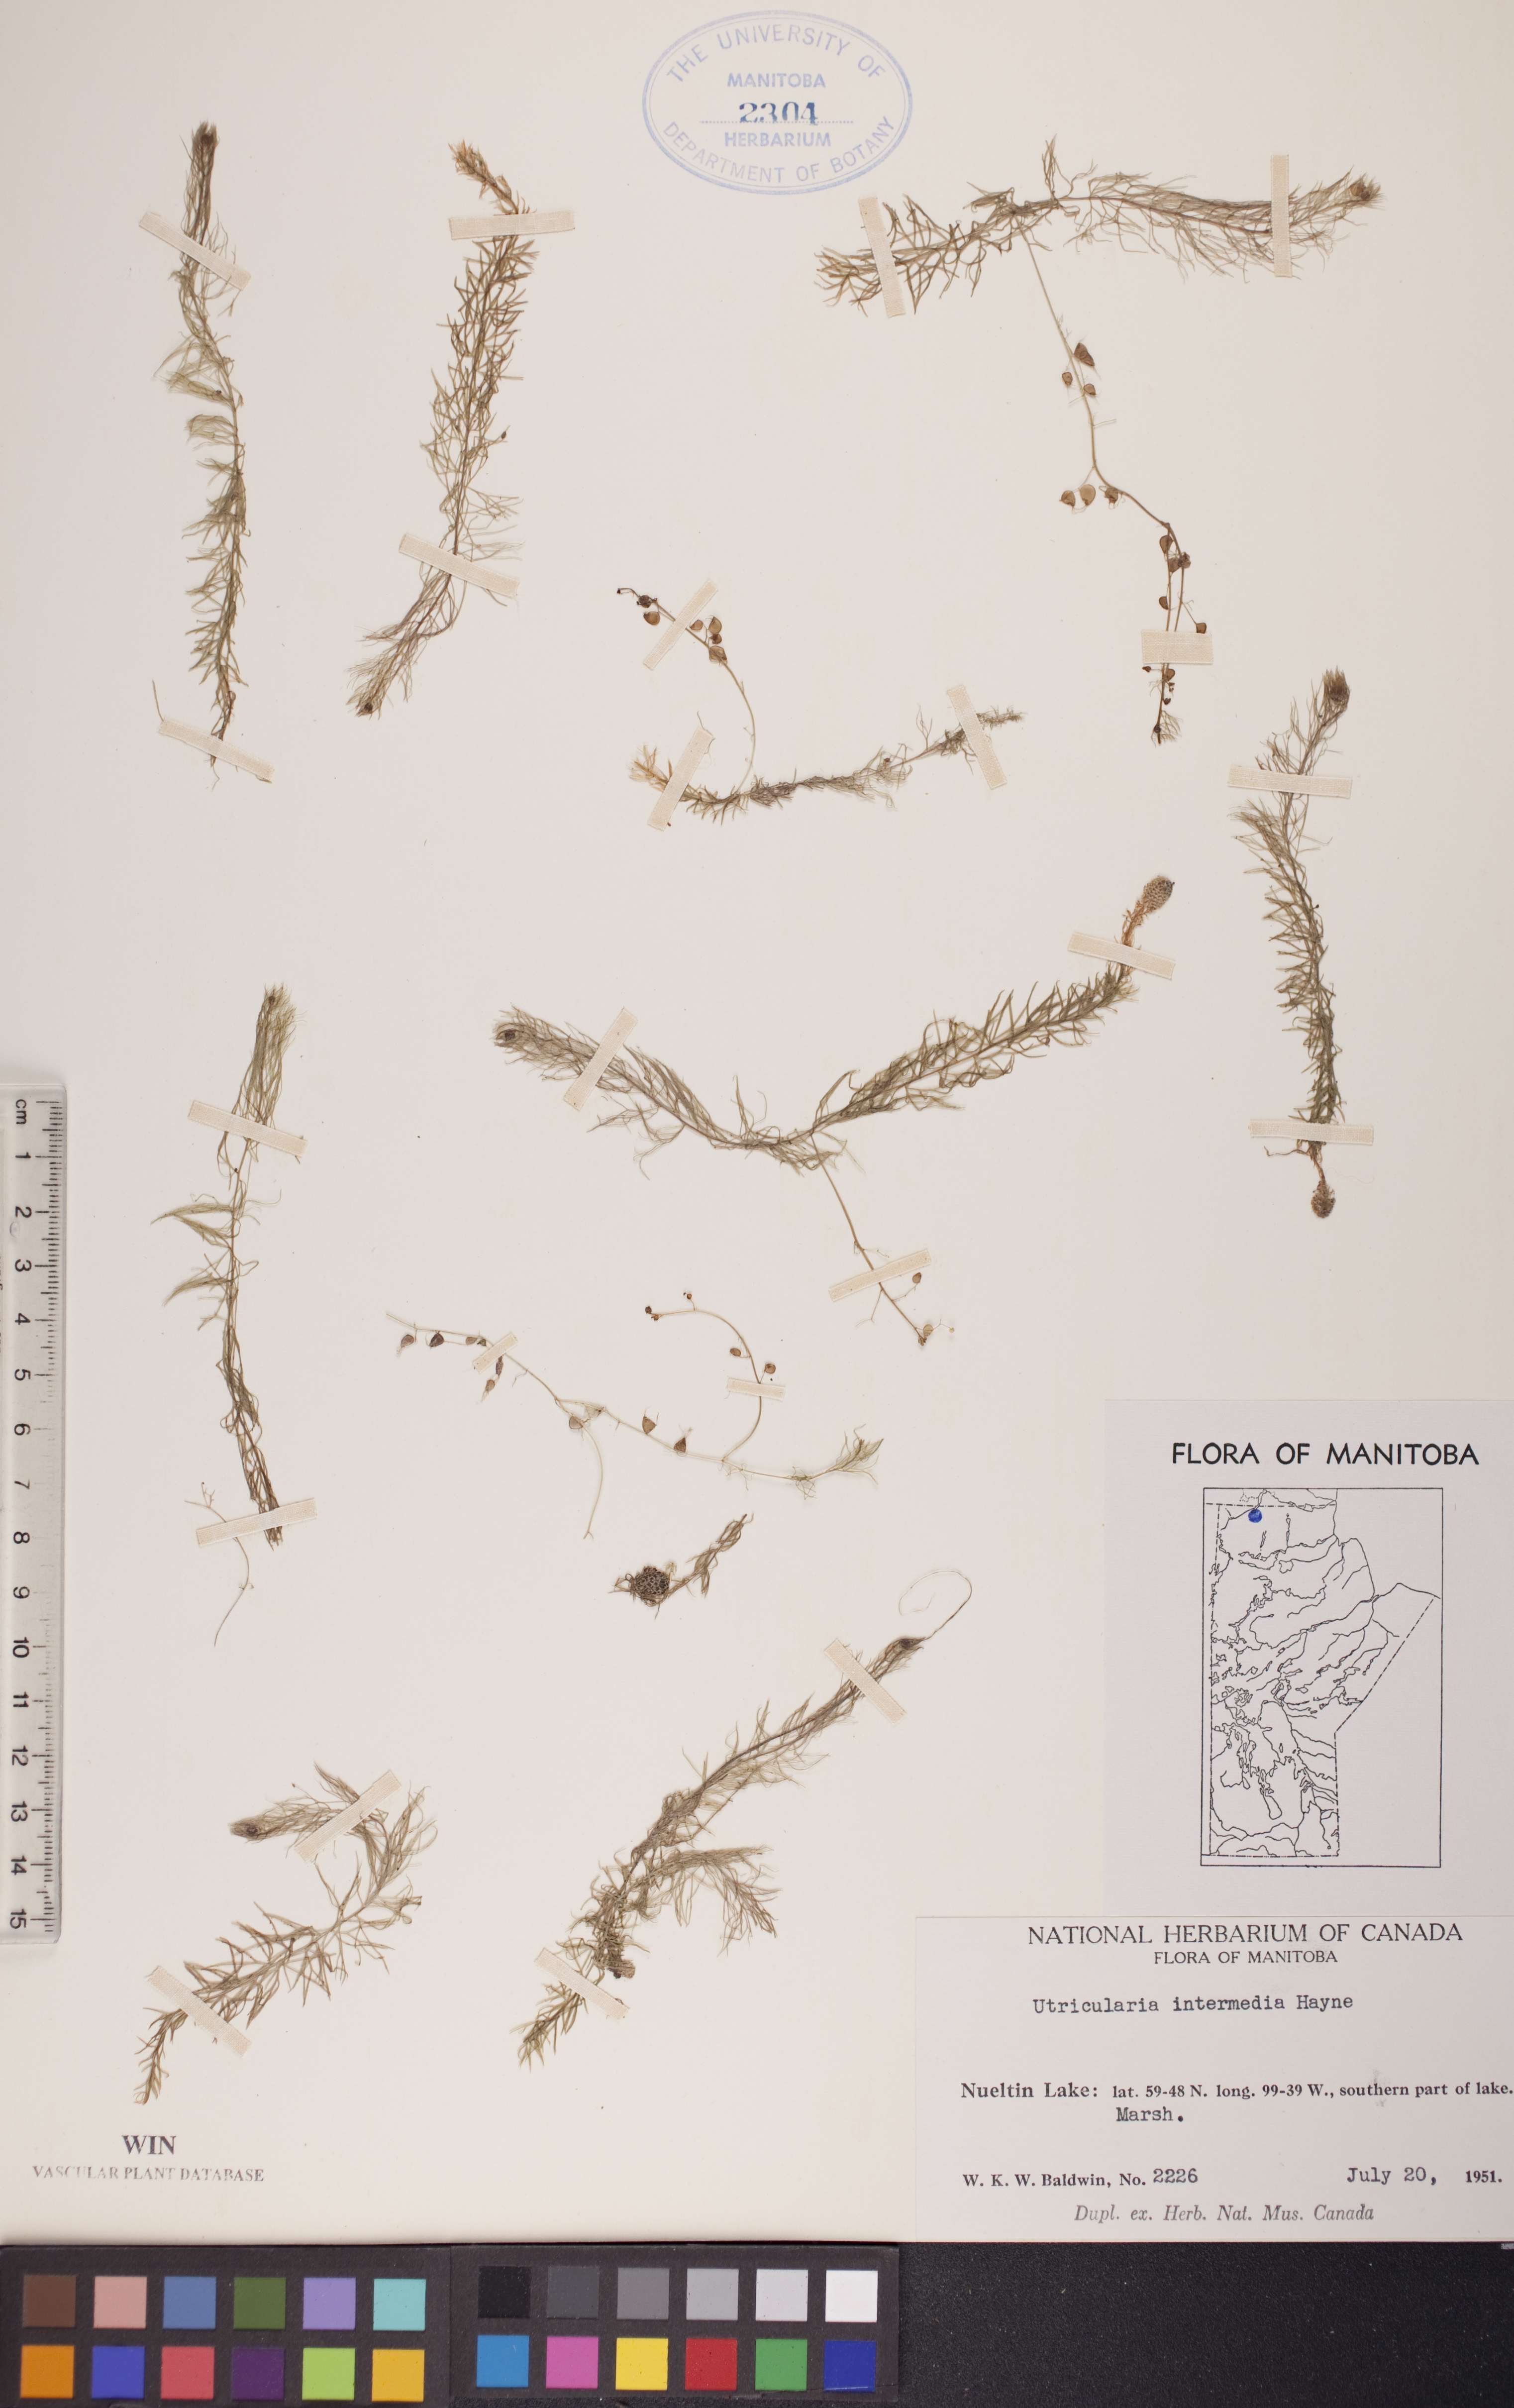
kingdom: Plantae
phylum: Tracheophyta
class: Magnoliopsida
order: Lamiales
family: Lentibulariaceae
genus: Utricularia
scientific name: Utricularia intermedia
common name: Intermediate bladderwort
